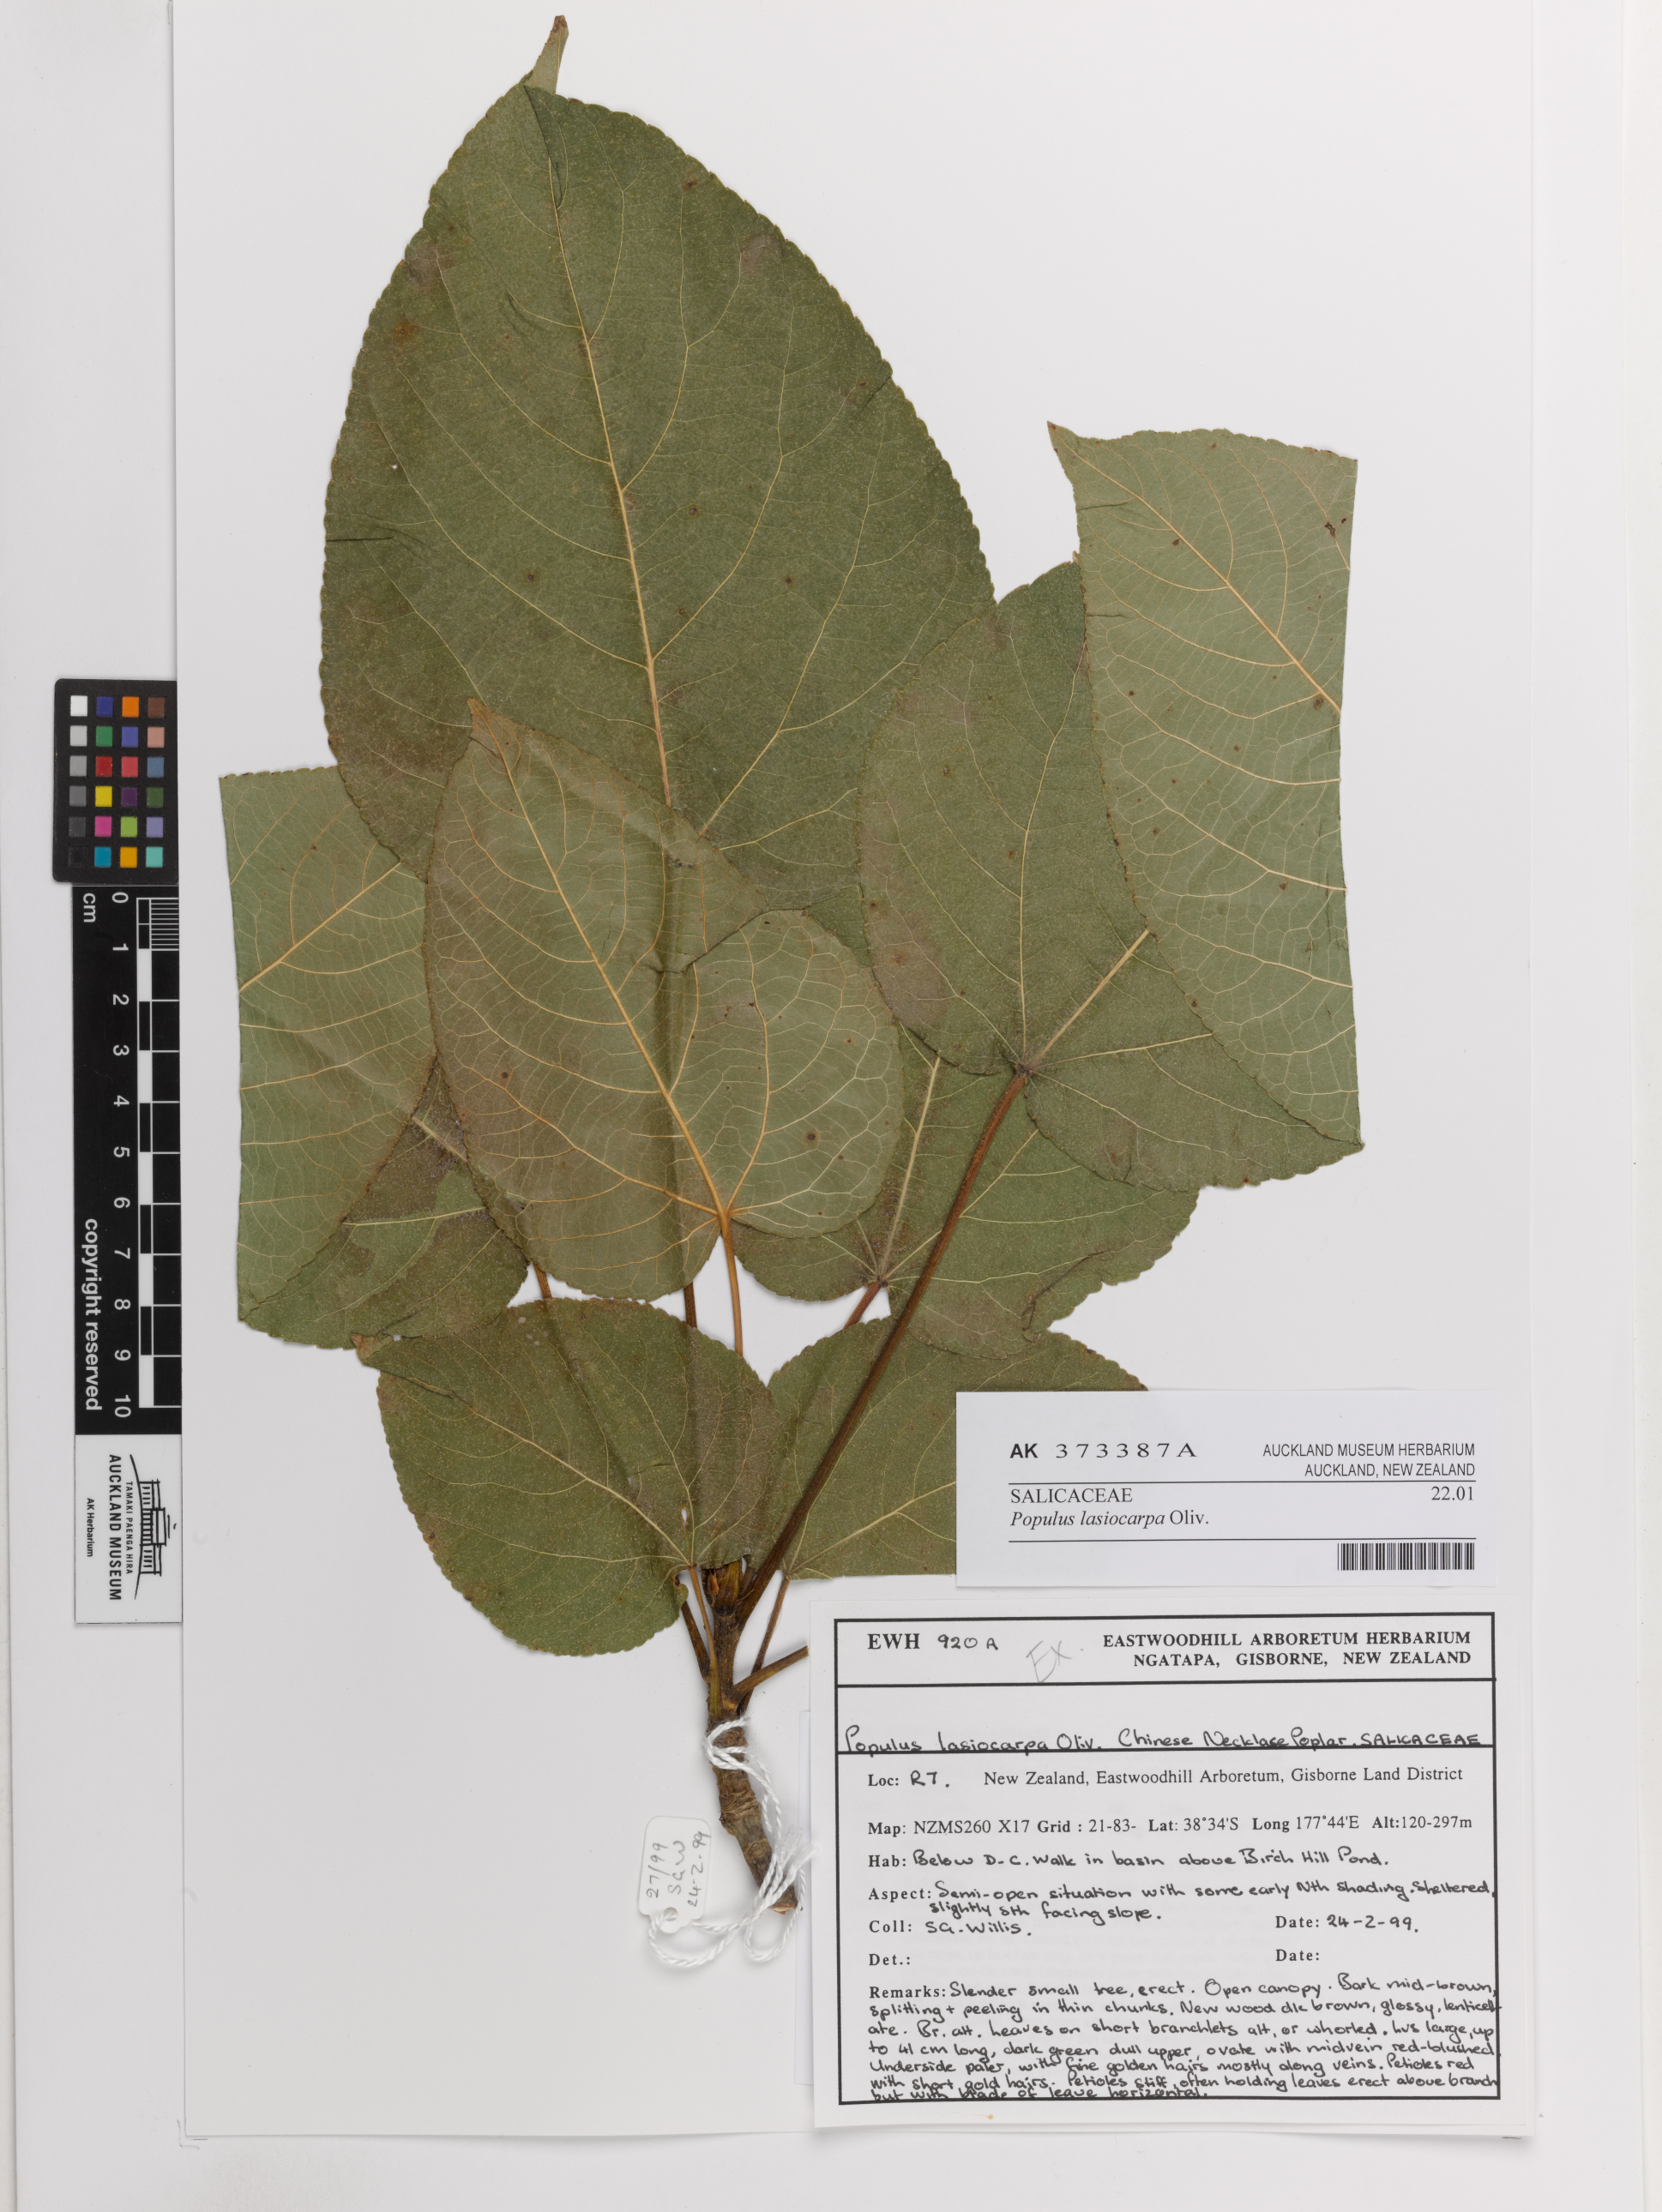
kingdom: Plantae
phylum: Tracheophyta
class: Magnoliopsida
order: Malpighiales
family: Salicaceae
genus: Populus
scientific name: Populus lasiocarpa
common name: Chinese necklace poplar
